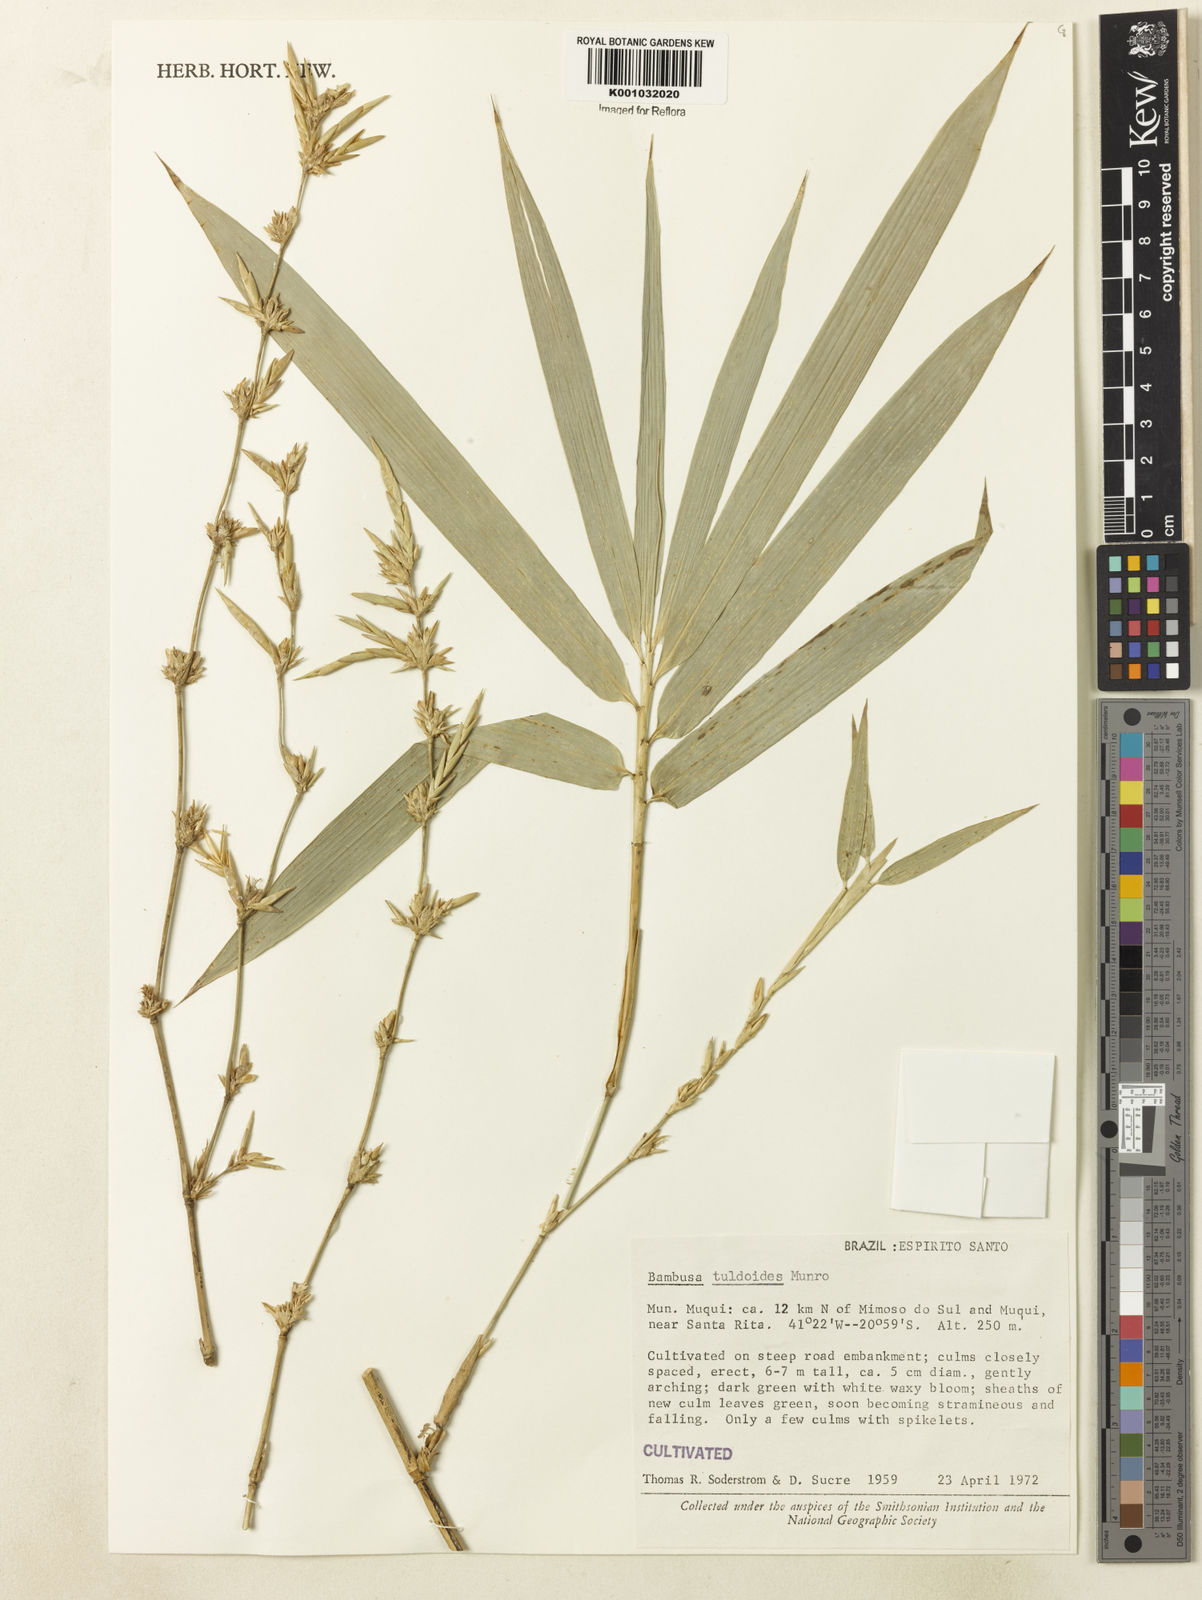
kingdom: Plantae
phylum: Tracheophyta
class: Liliopsida
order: Poales
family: Poaceae
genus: Bambusa
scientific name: Bambusa tuldoides
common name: Verdant bamboo
